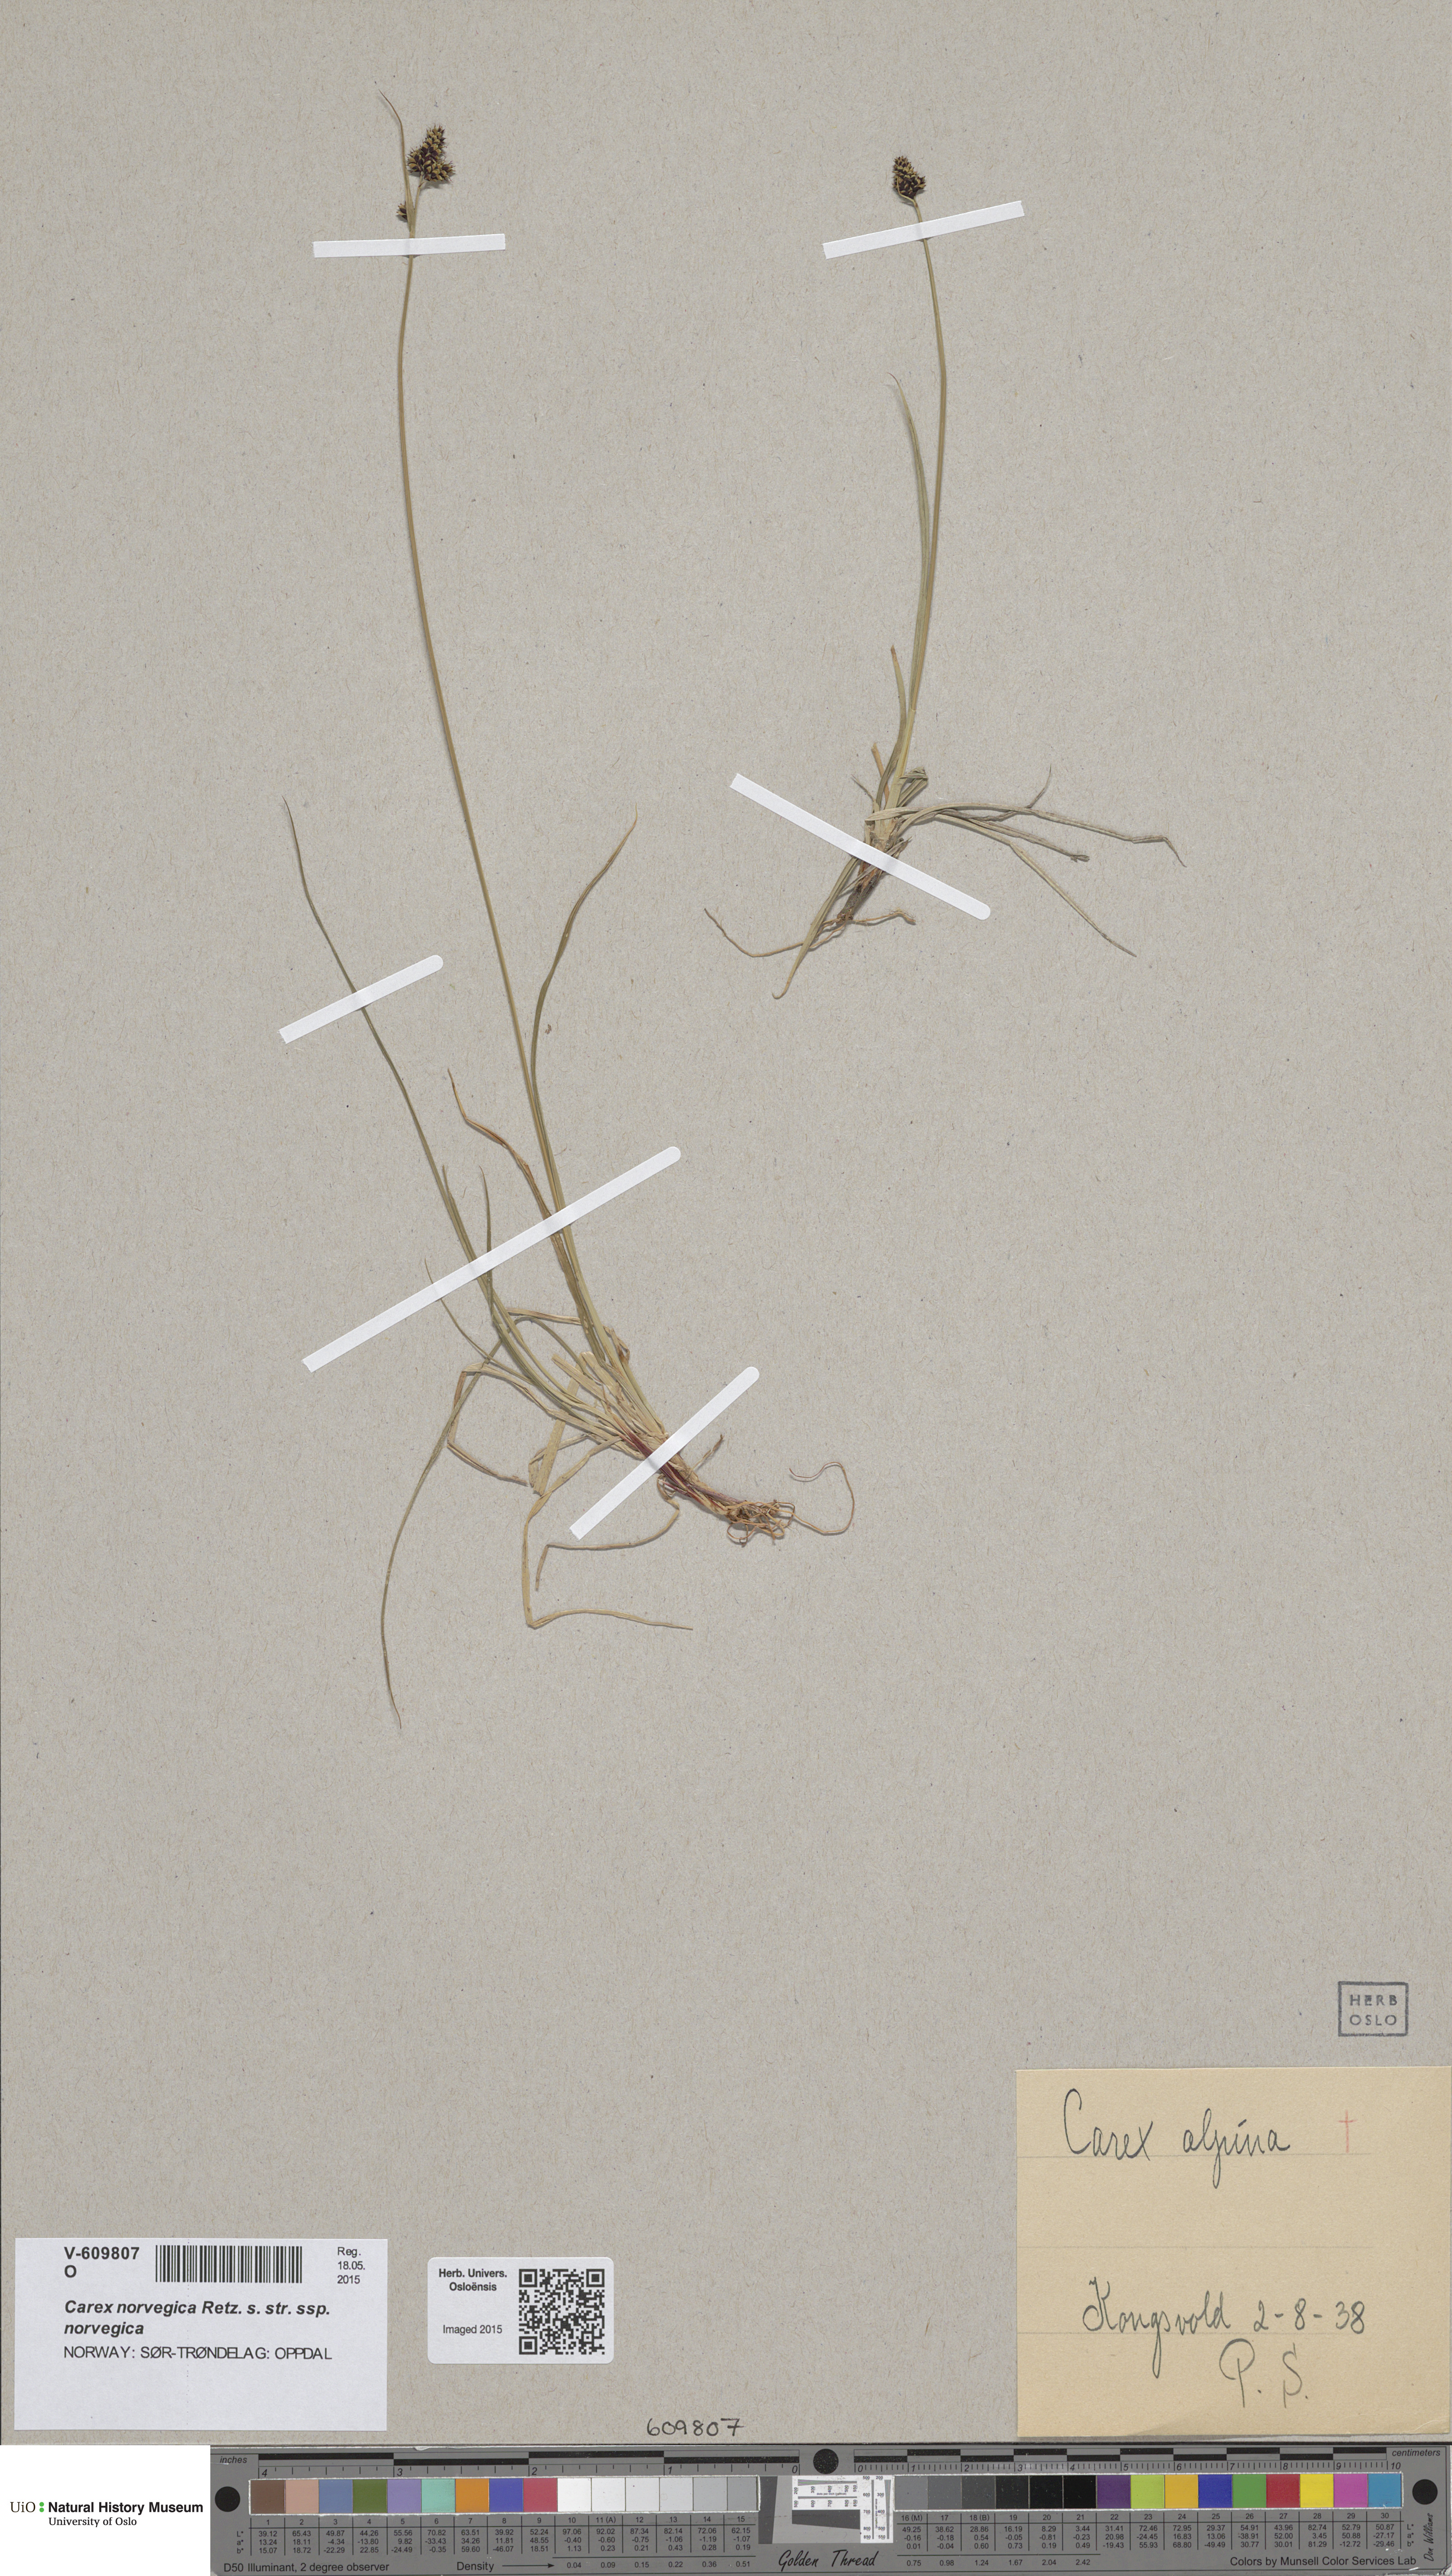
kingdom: Plantae
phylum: Tracheophyta
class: Liliopsida
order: Poales
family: Cyperaceae
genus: Carex
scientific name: Carex norvegica
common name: Close-headed alpine-sedge
